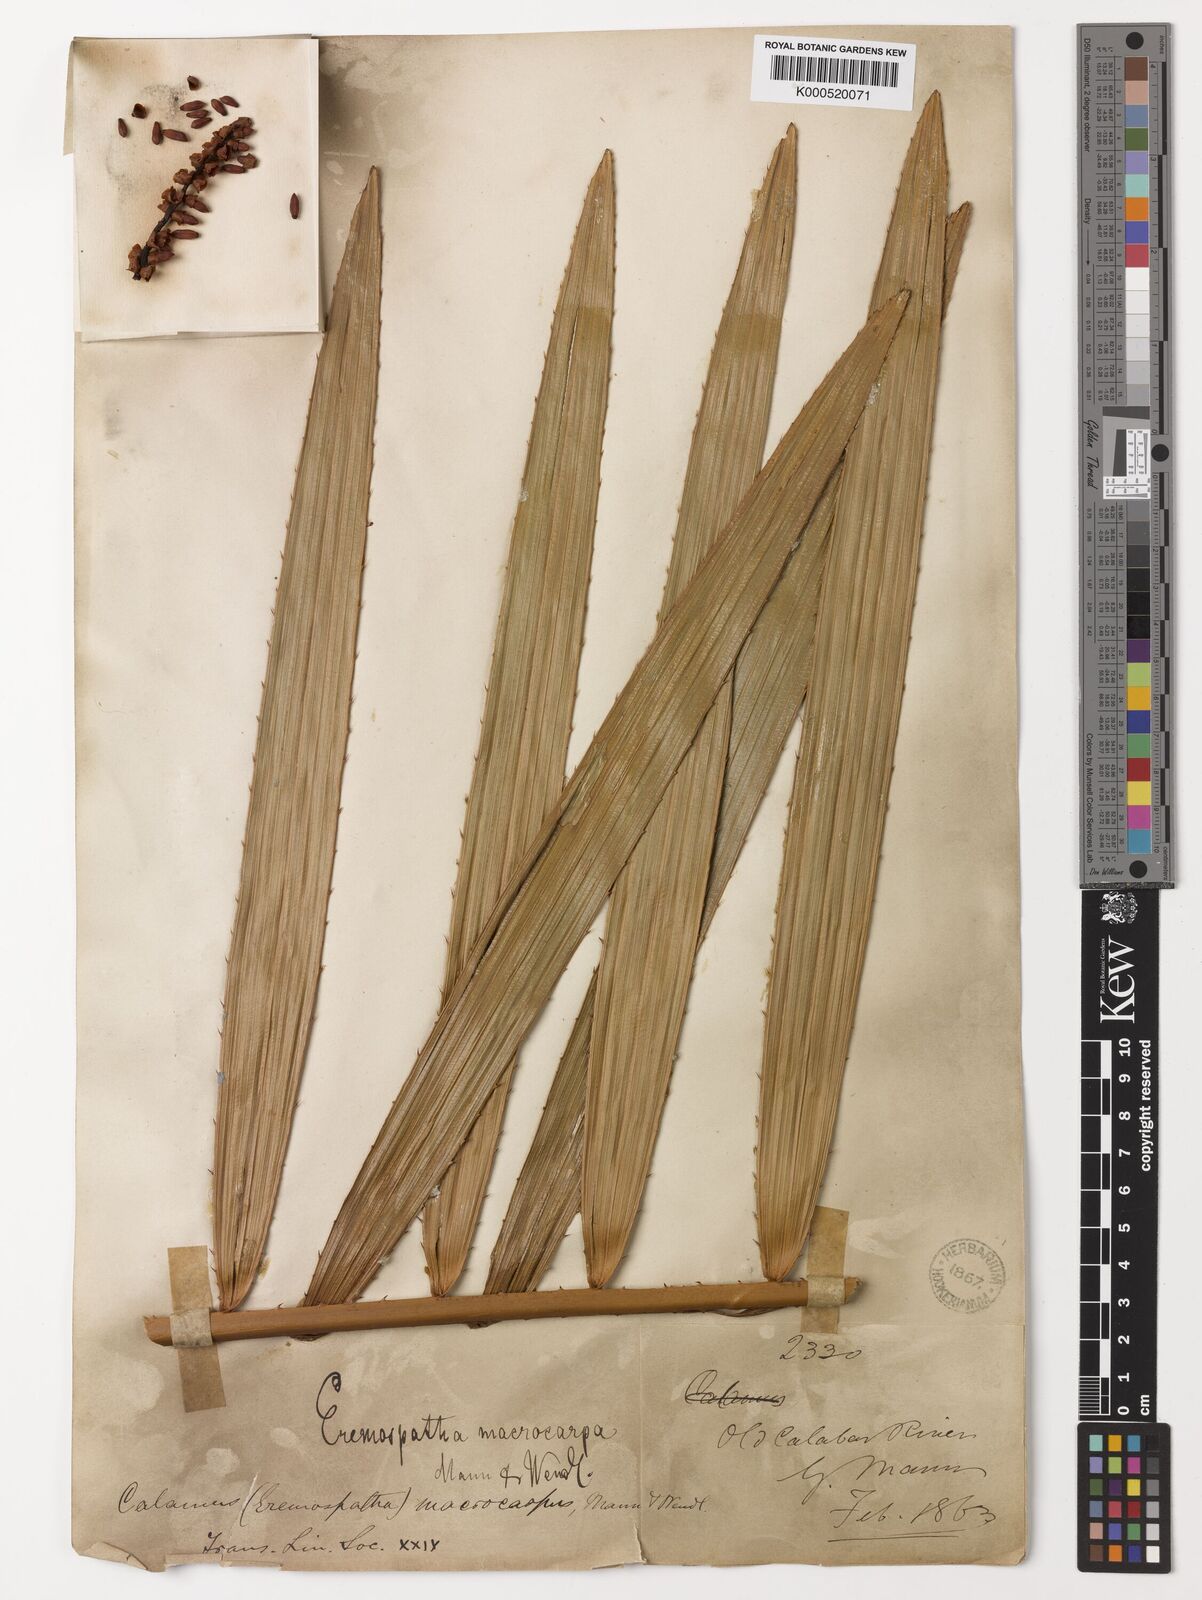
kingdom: Plantae
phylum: Tracheophyta
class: Liliopsida
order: Arecales
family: Arecaceae
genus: Eremospatha
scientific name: Eremospatha
